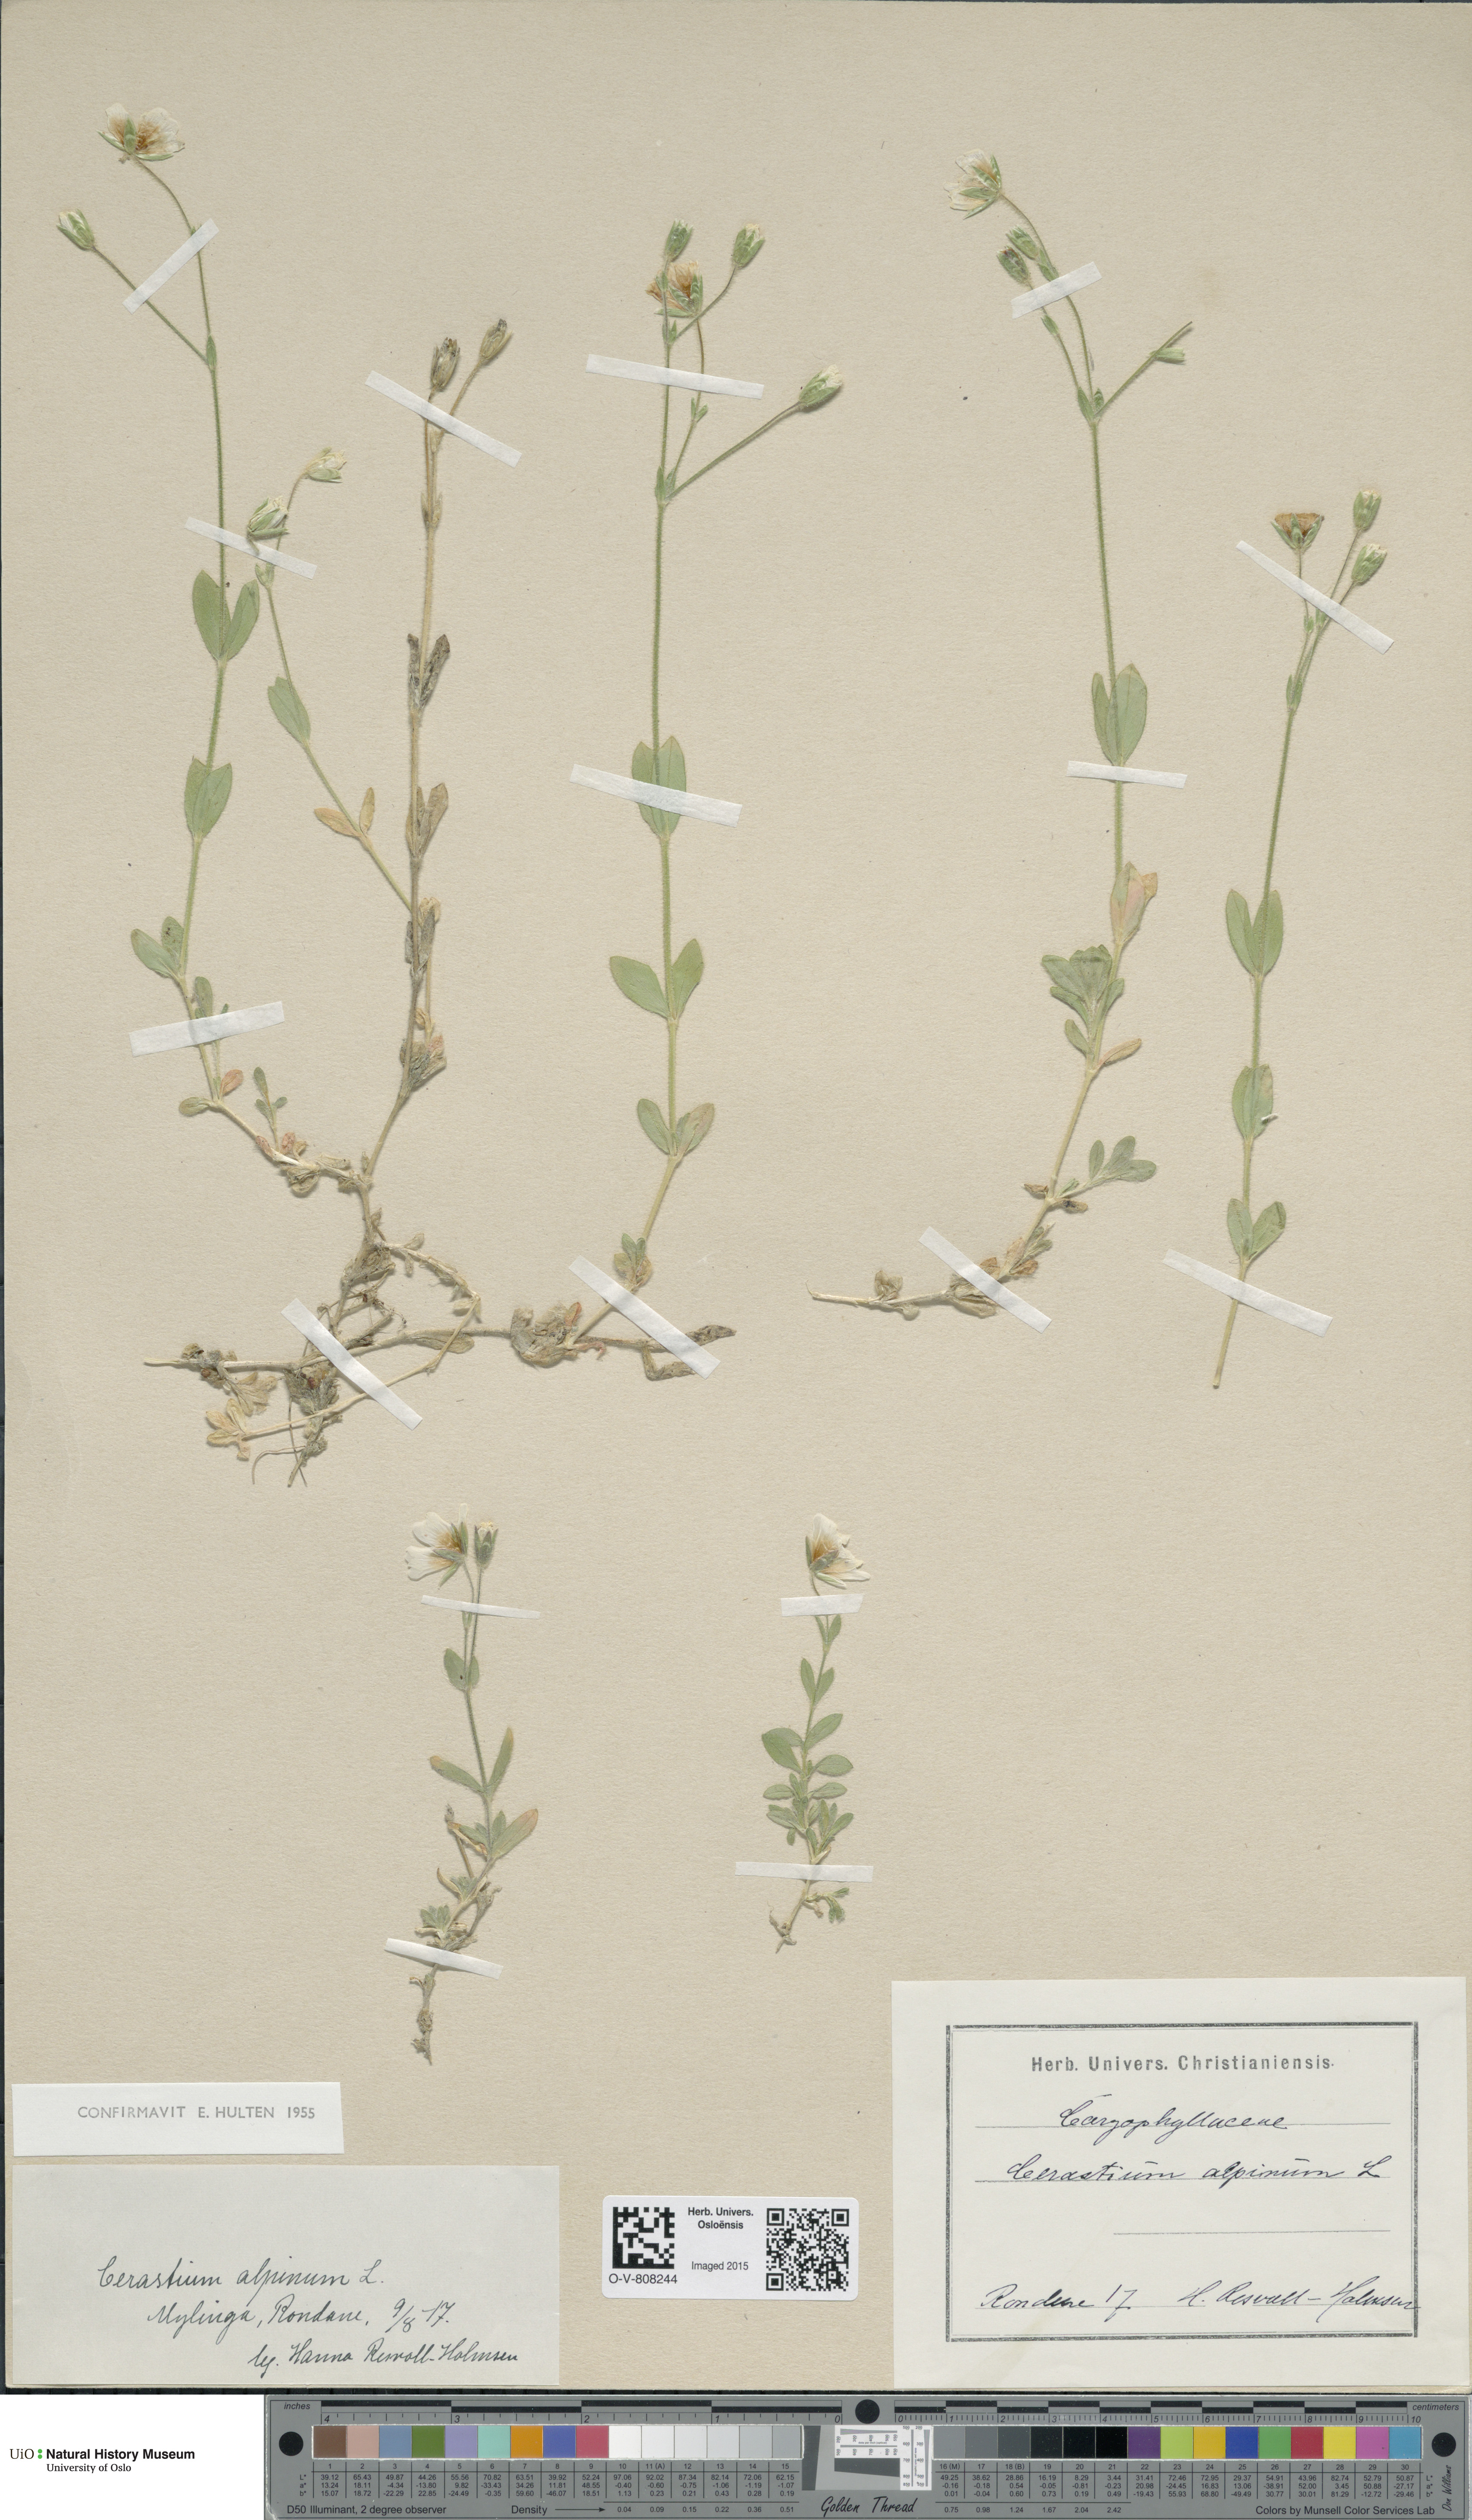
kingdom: Plantae
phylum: Tracheophyta
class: Magnoliopsida
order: Caryophyllales
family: Caryophyllaceae
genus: Cerastium
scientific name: Cerastium alpinum
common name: Alpine mouse-ear
